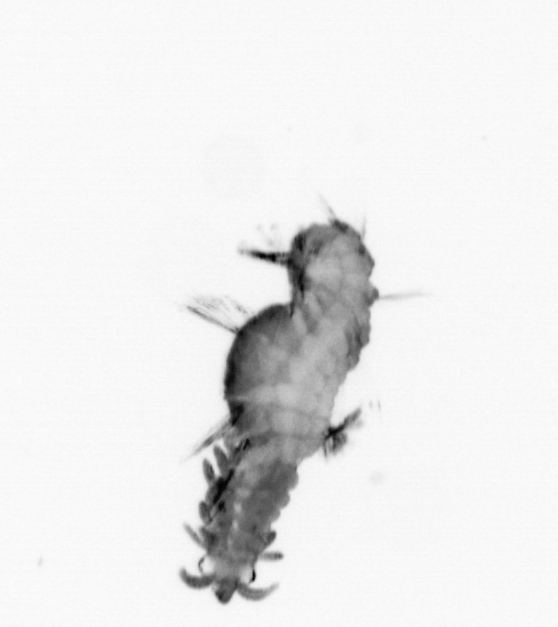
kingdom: Animalia
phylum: Annelida
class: Polychaeta
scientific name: Polychaeta
